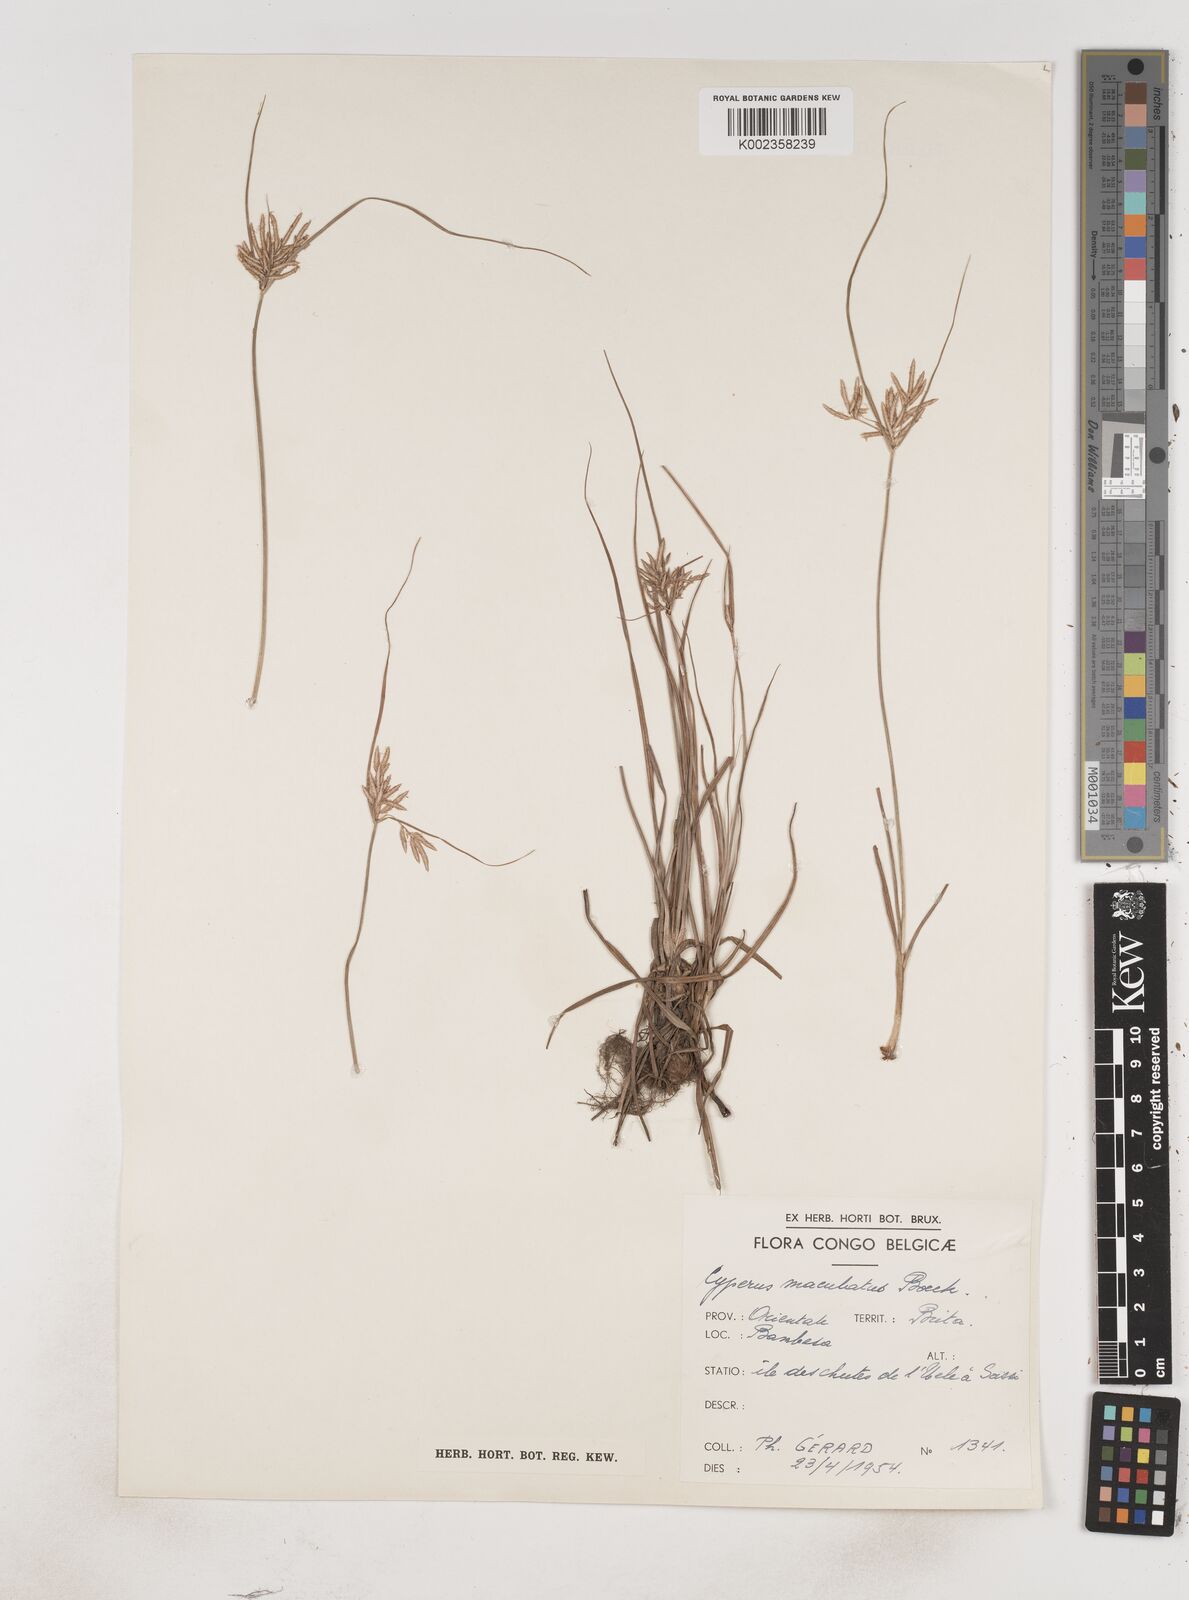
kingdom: Plantae
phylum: Tracheophyta
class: Liliopsida
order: Poales
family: Cyperaceae
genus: Cyperus
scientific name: Cyperus maculatus
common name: Maculated sedge
